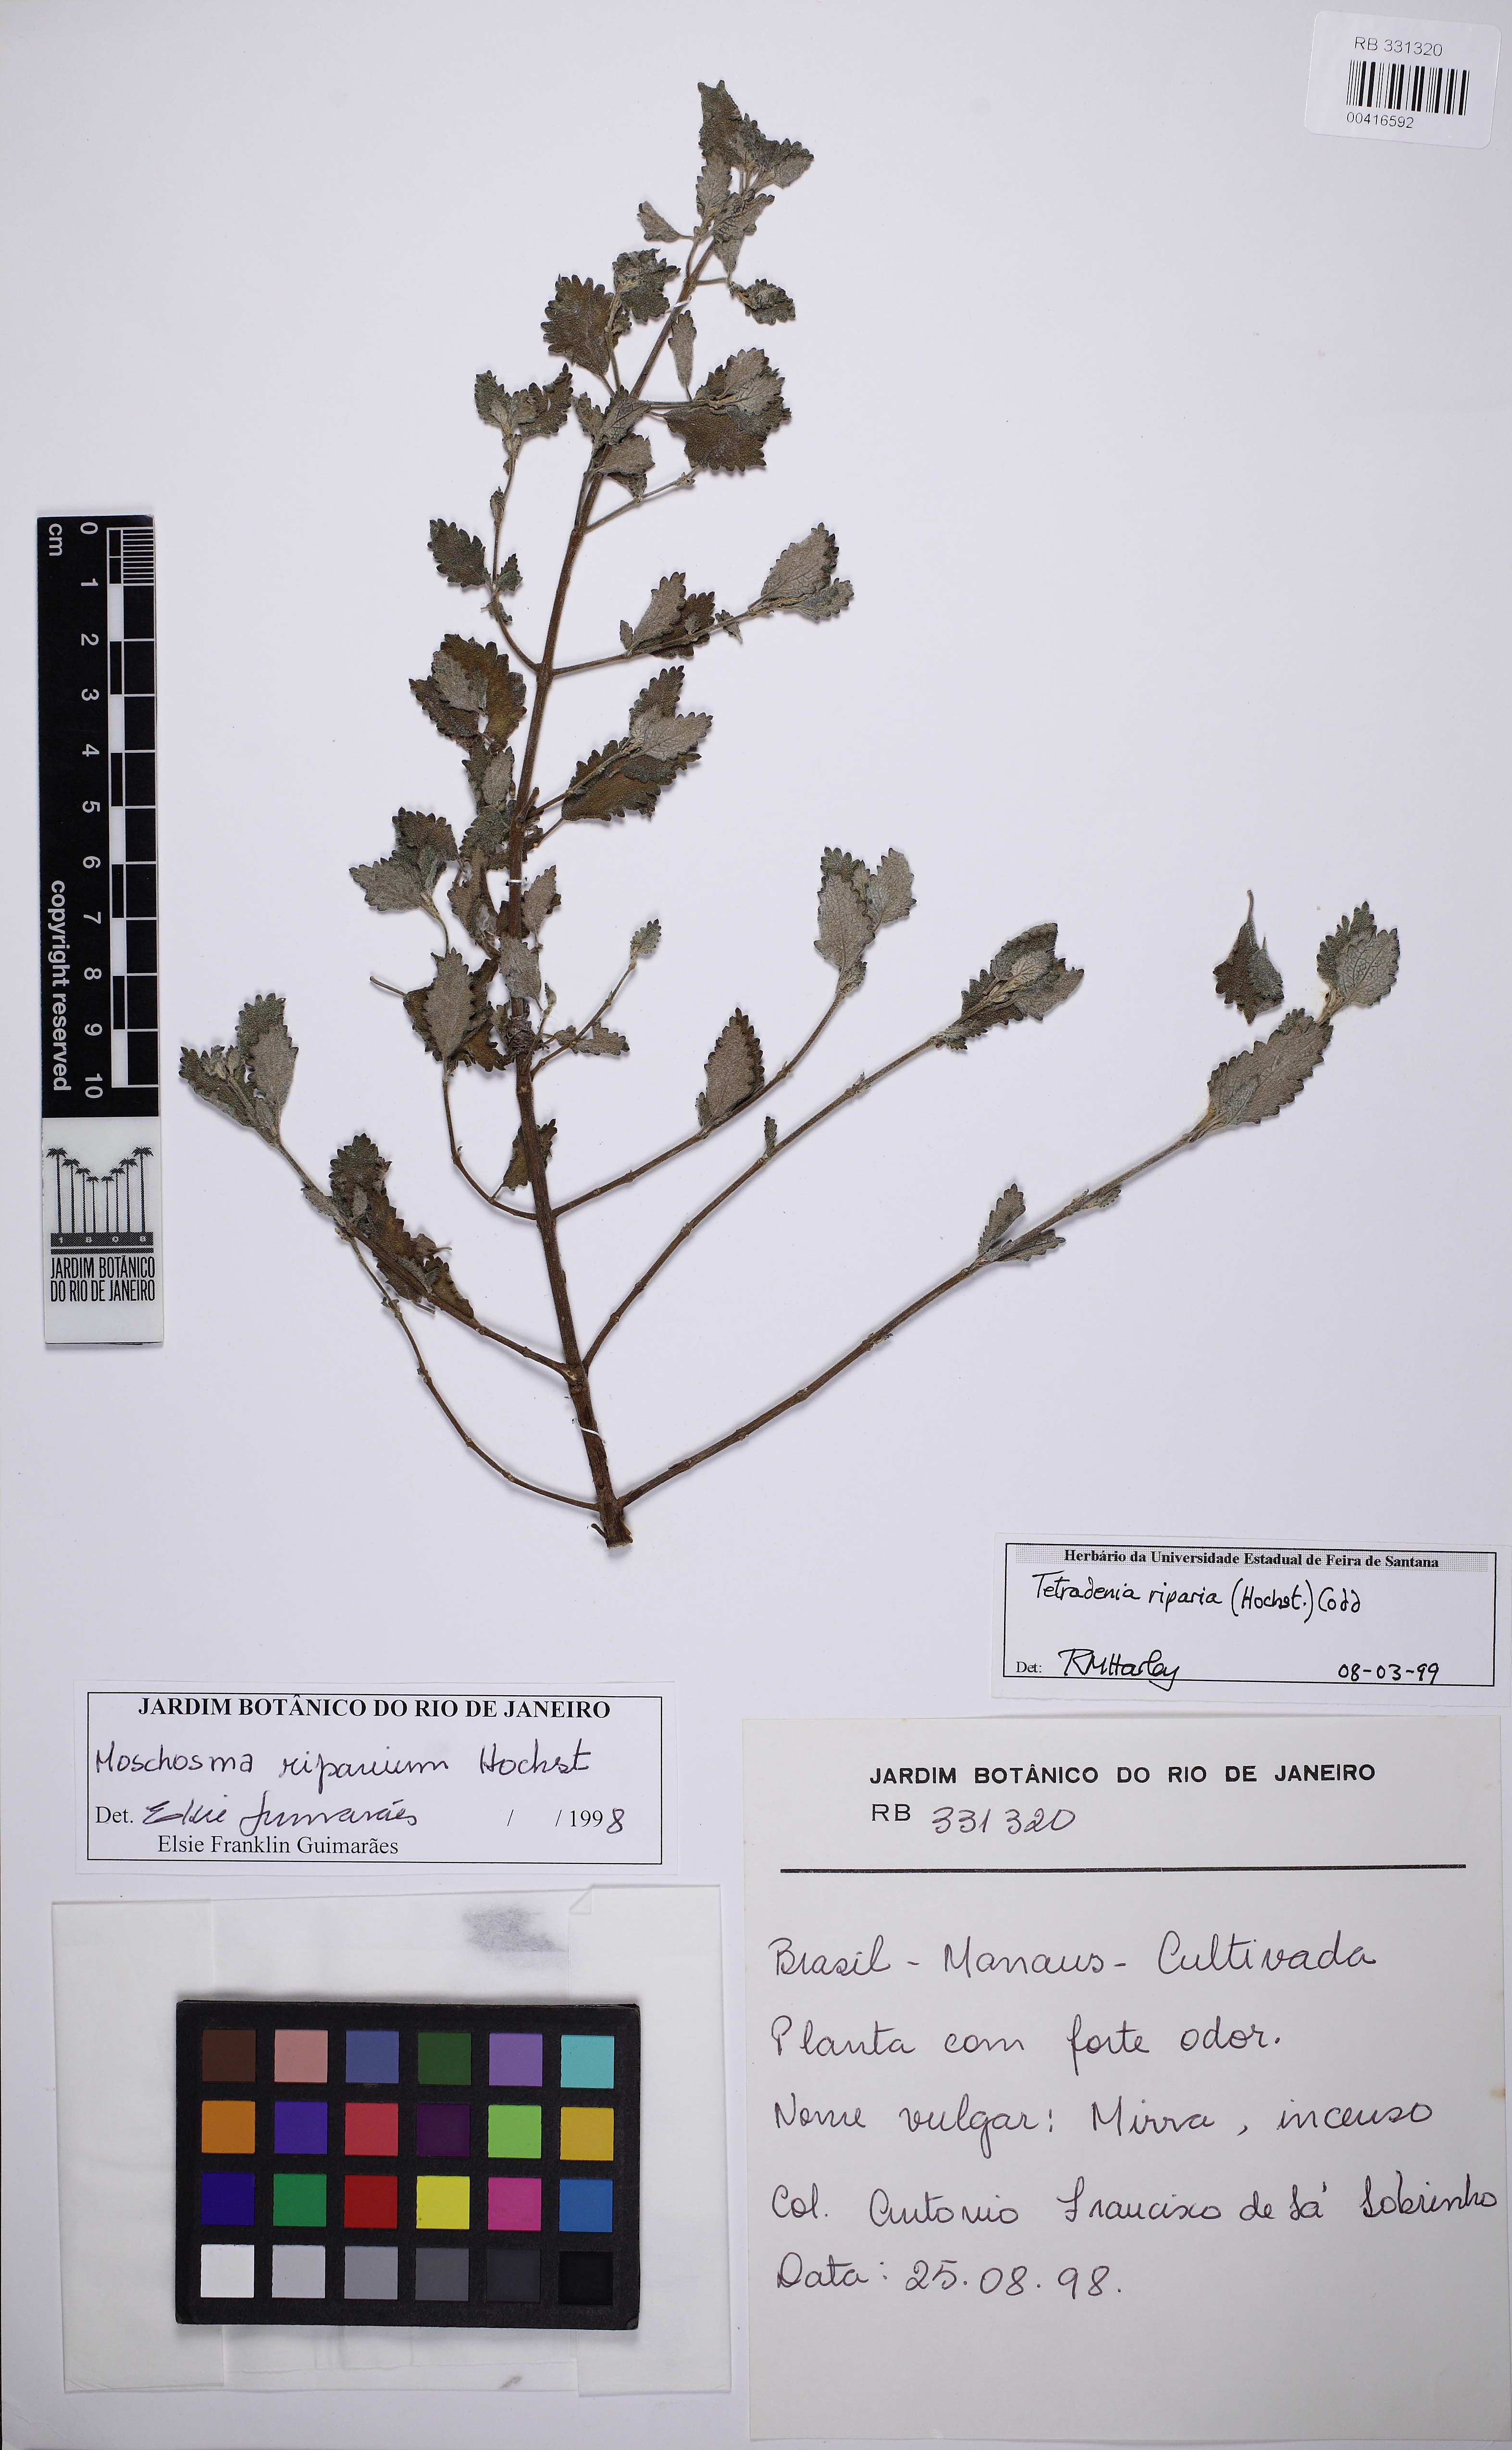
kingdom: Plantae
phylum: Tracheophyta
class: Magnoliopsida
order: Lamiales
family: Lamiaceae
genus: Tetradenia
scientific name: Tetradenia riparia
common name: Gingerbush
